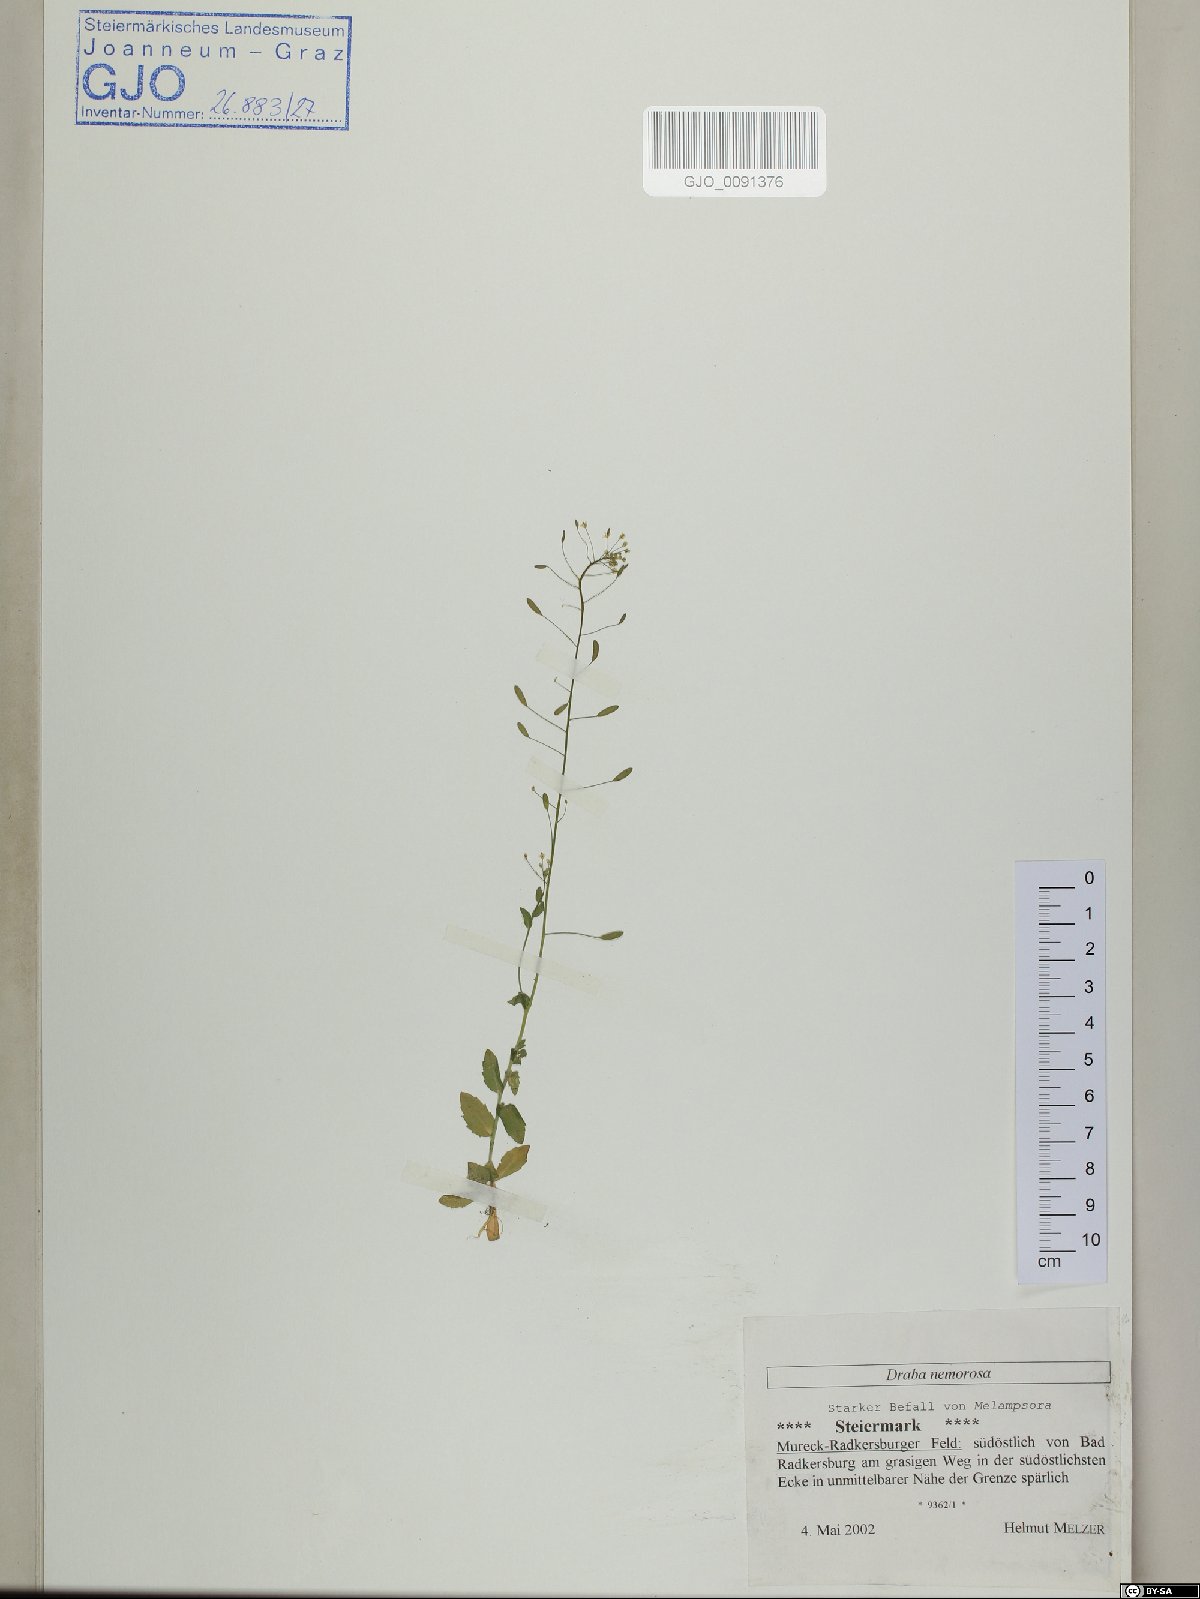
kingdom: Plantae
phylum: Tracheophyta
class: Magnoliopsida
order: Brassicales
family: Brassicaceae
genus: Draba
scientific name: Draba nemorosa
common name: Wood whitlow-grass
